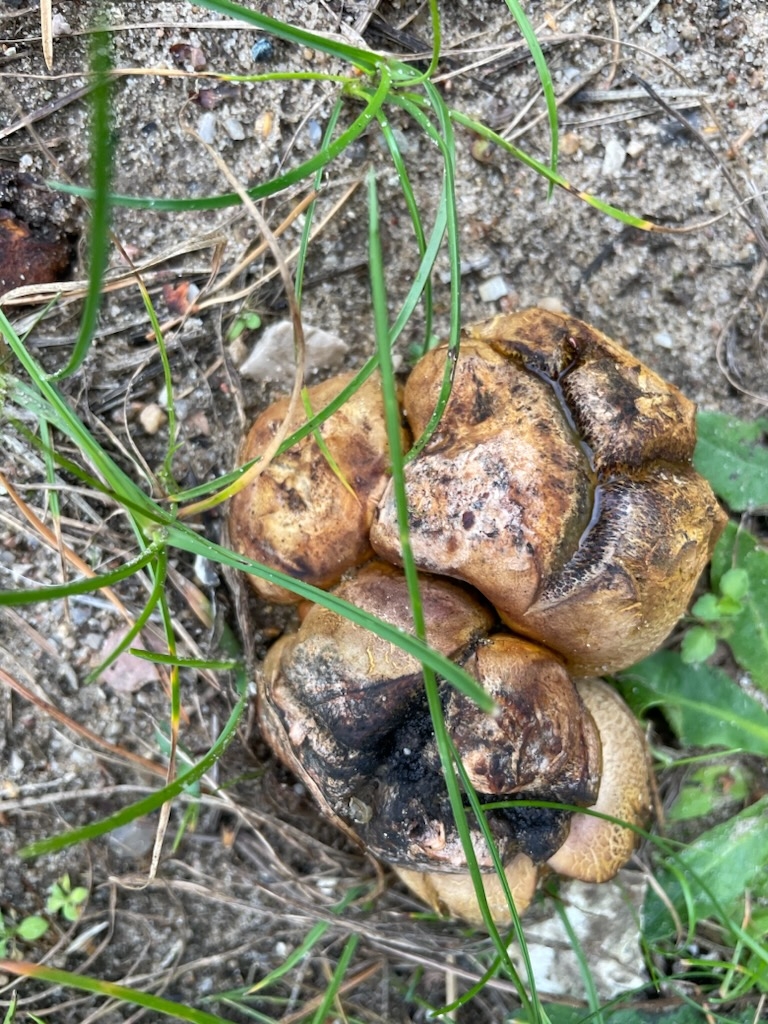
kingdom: Fungi
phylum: Basidiomycota
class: Agaricomycetes
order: Boletales
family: Sclerodermataceae
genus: Scleroderma
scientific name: Scleroderma
